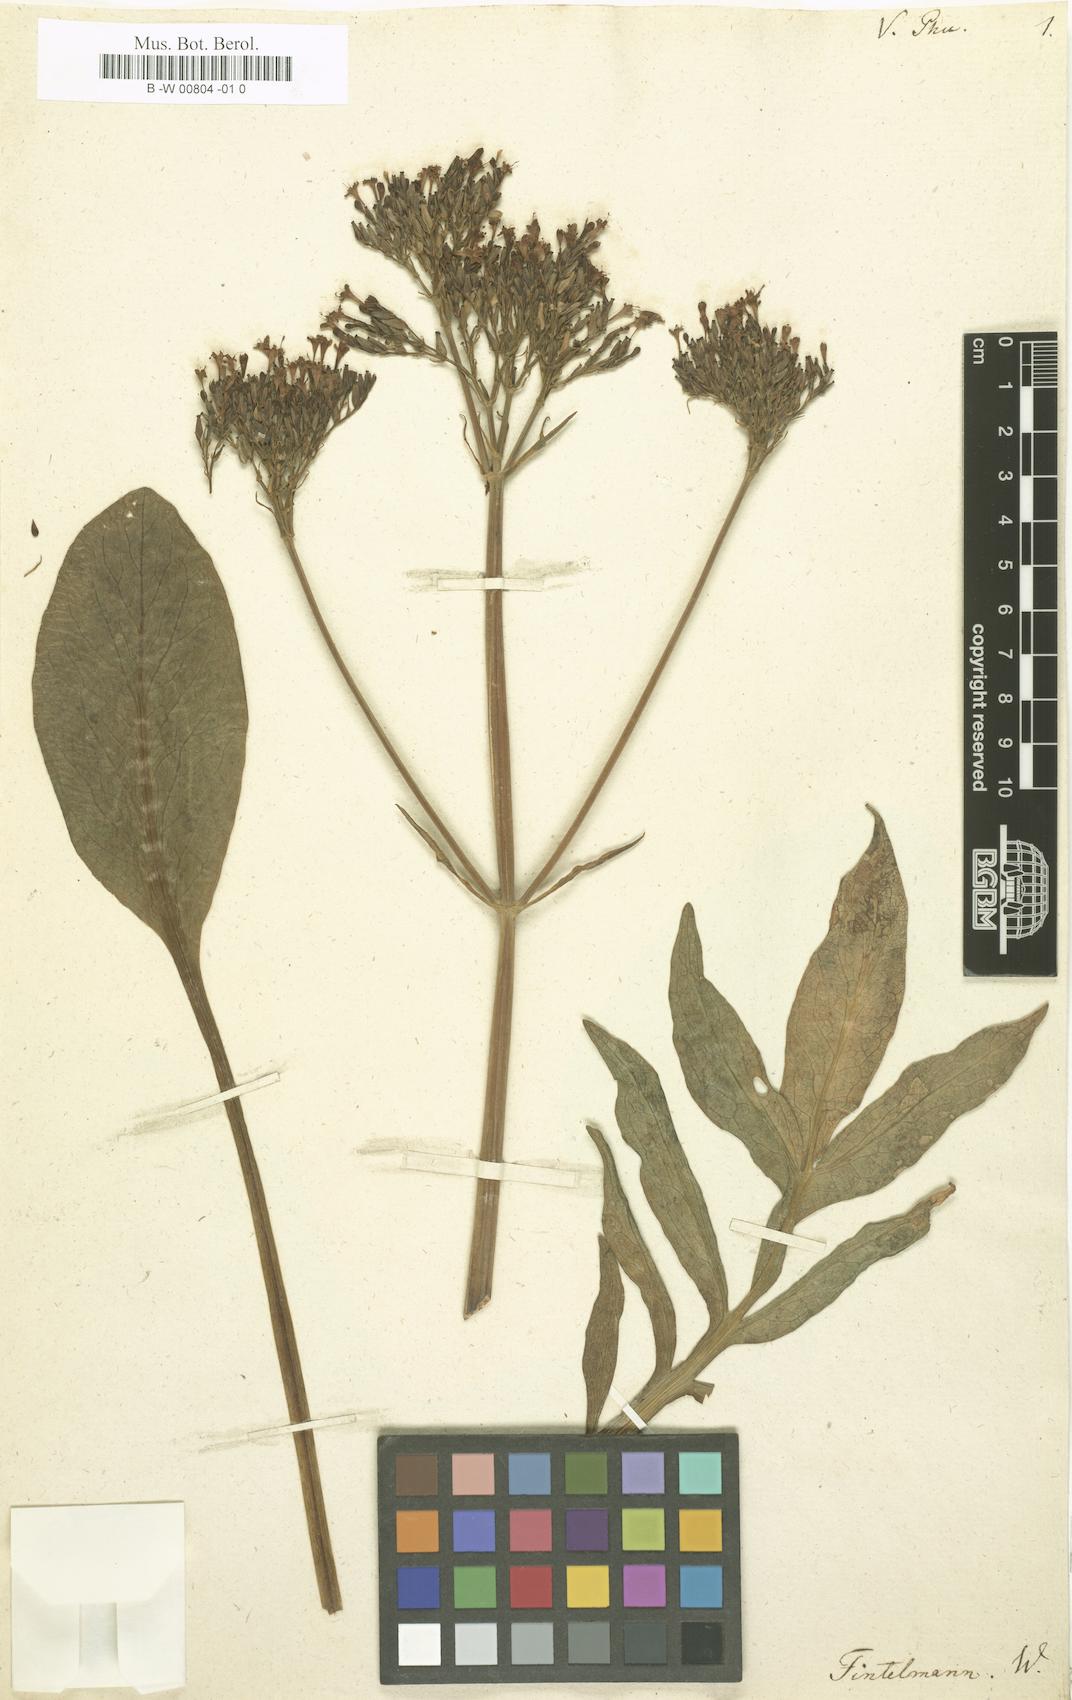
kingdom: Plantae
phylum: Tracheophyta
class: Magnoliopsida
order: Dipsacales
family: Caprifoliaceae
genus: Valeriana
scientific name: Valeriana phu
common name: Turkey valerian
